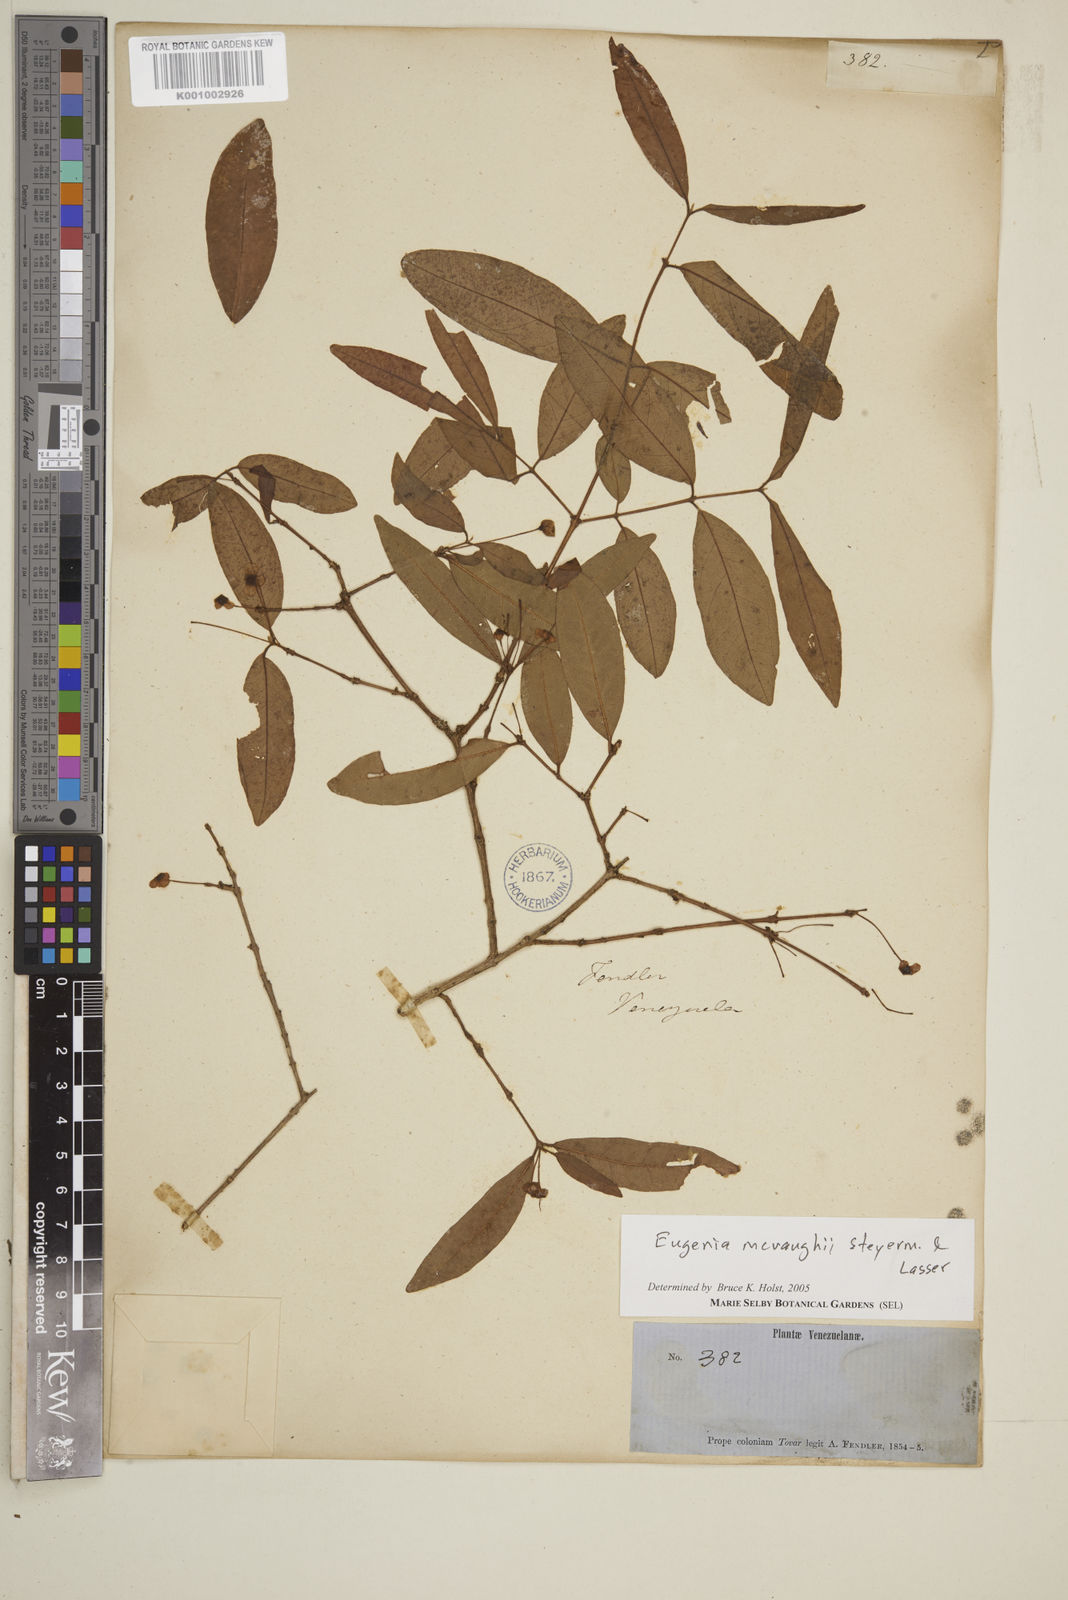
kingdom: Plantae
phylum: Tracheophyta
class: Magnoliopsida
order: Myrtales
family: Myrtaceae
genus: Eugenia
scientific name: Eugenia mcvaughii
